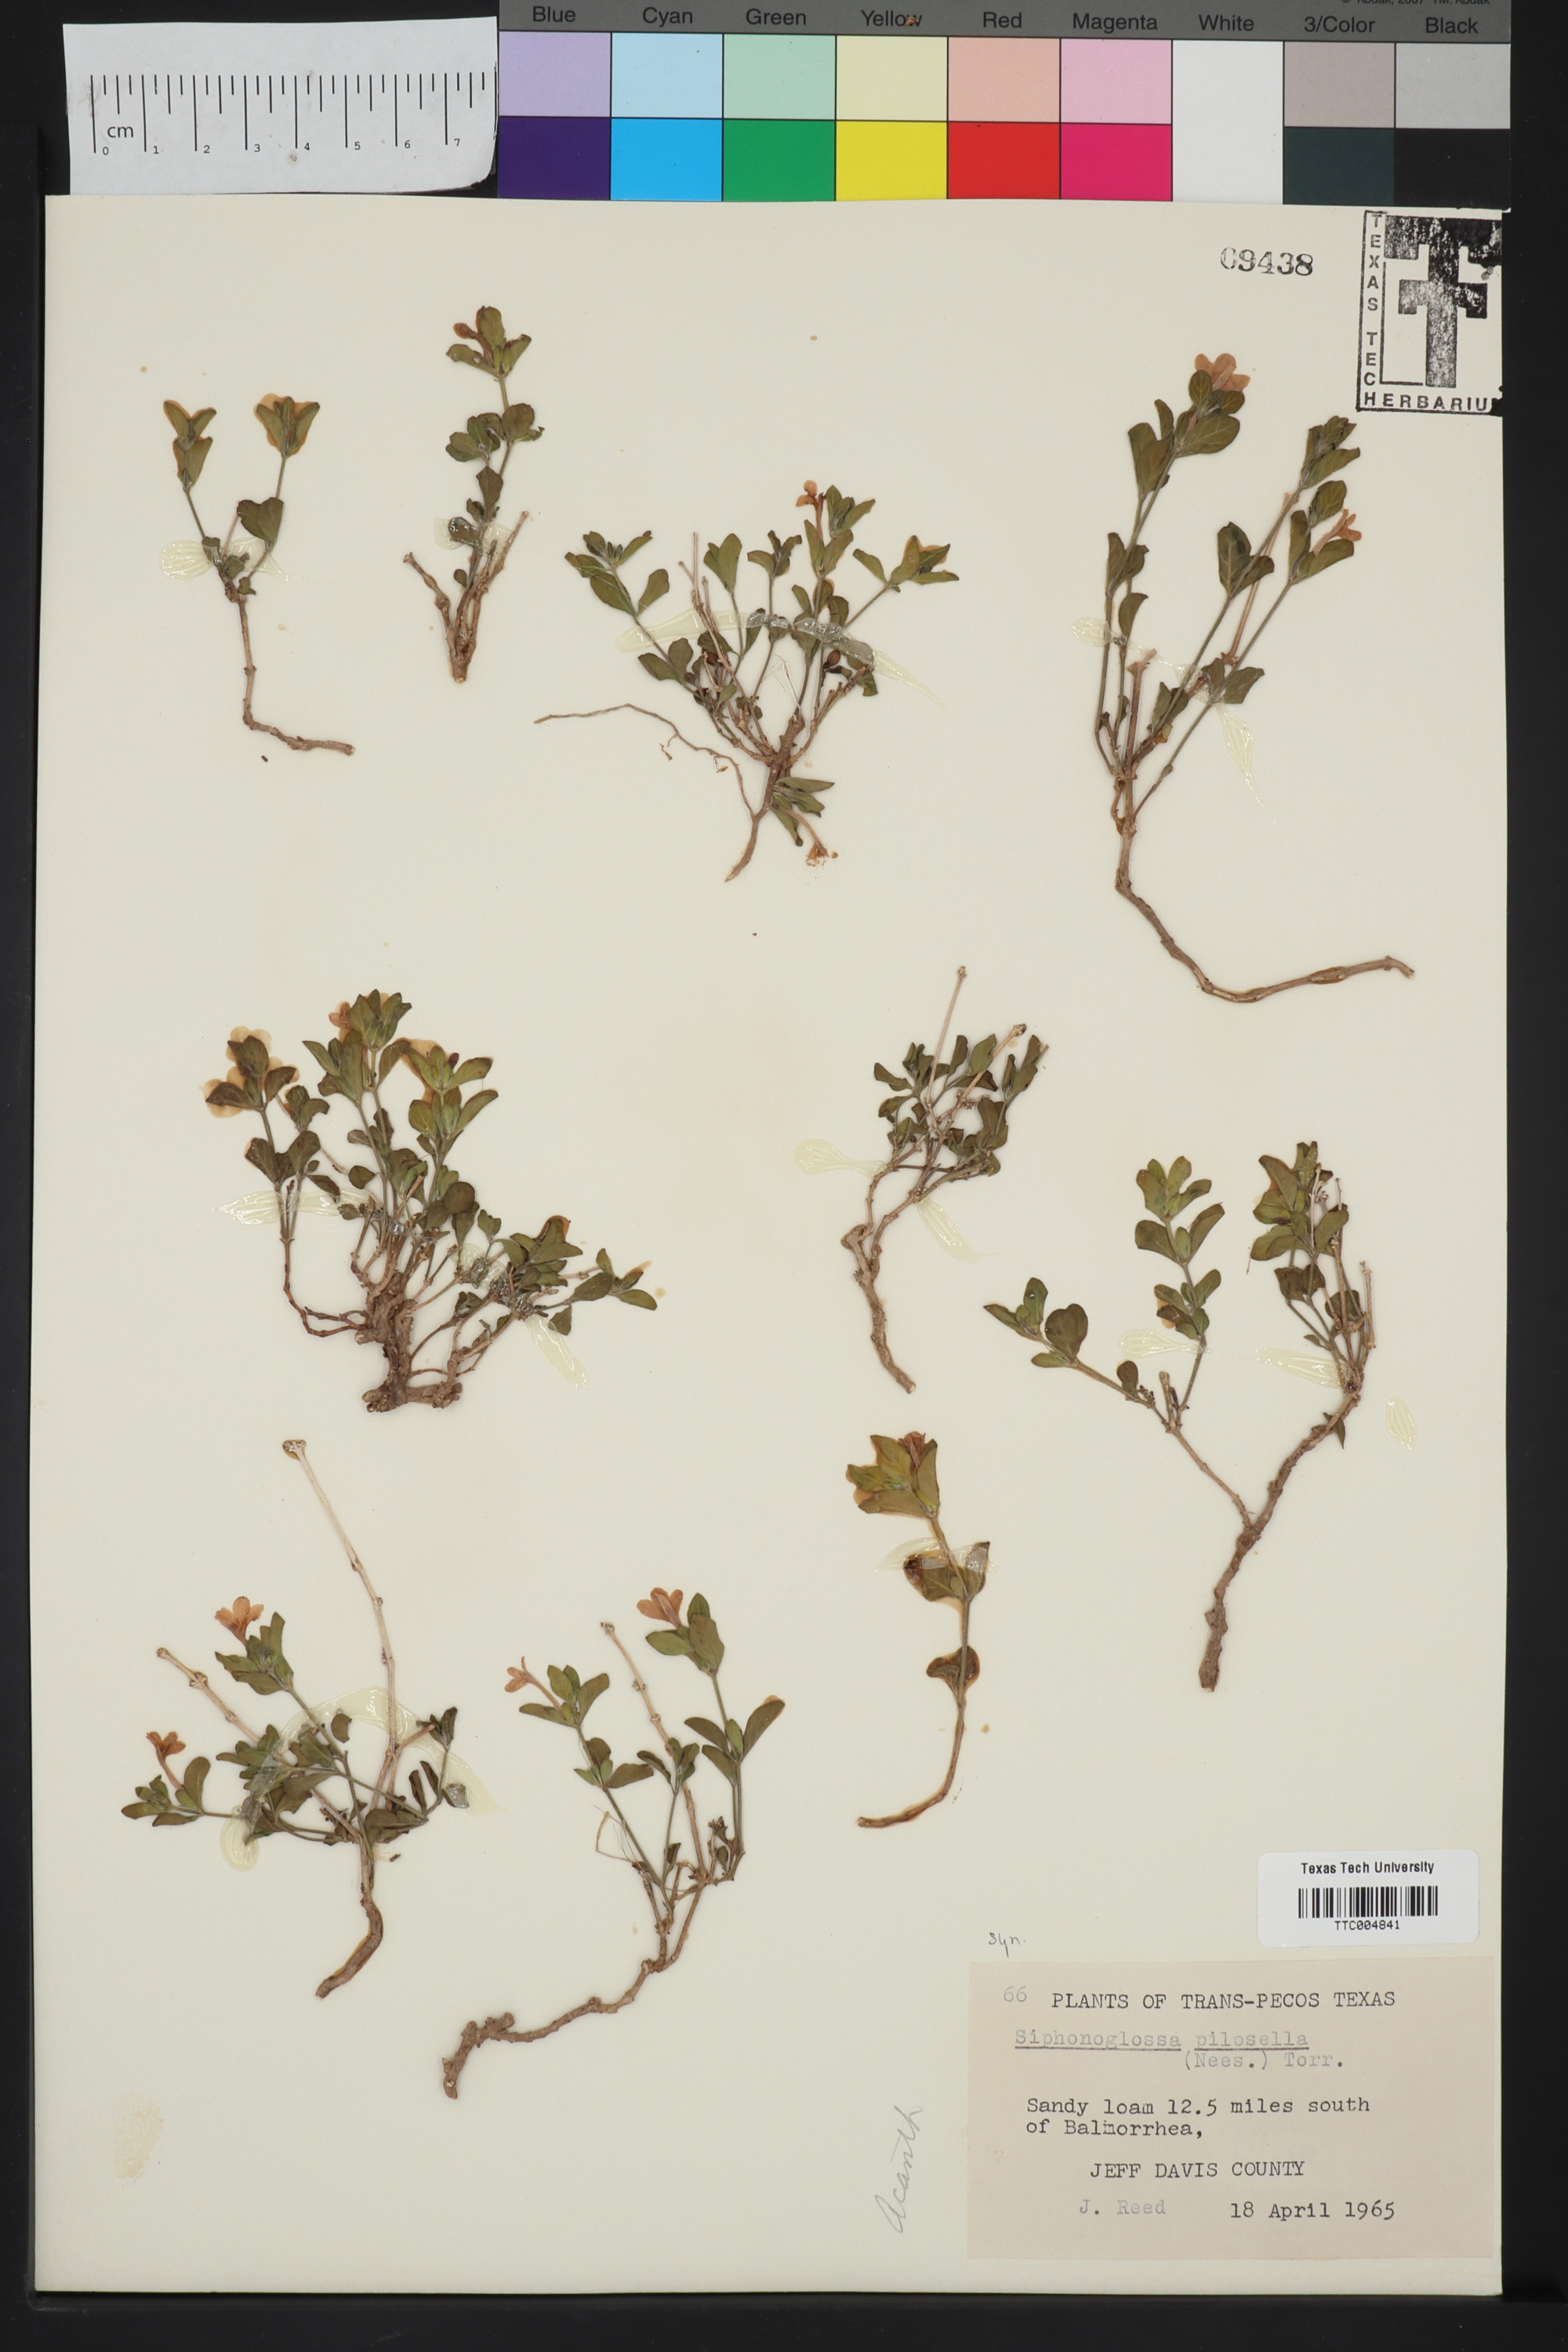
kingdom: Plantae
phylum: Tracheophyta
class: Magnoliopsida
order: Lamiales
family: Acanthaceae
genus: Justicia
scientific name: Justicia pilosella
